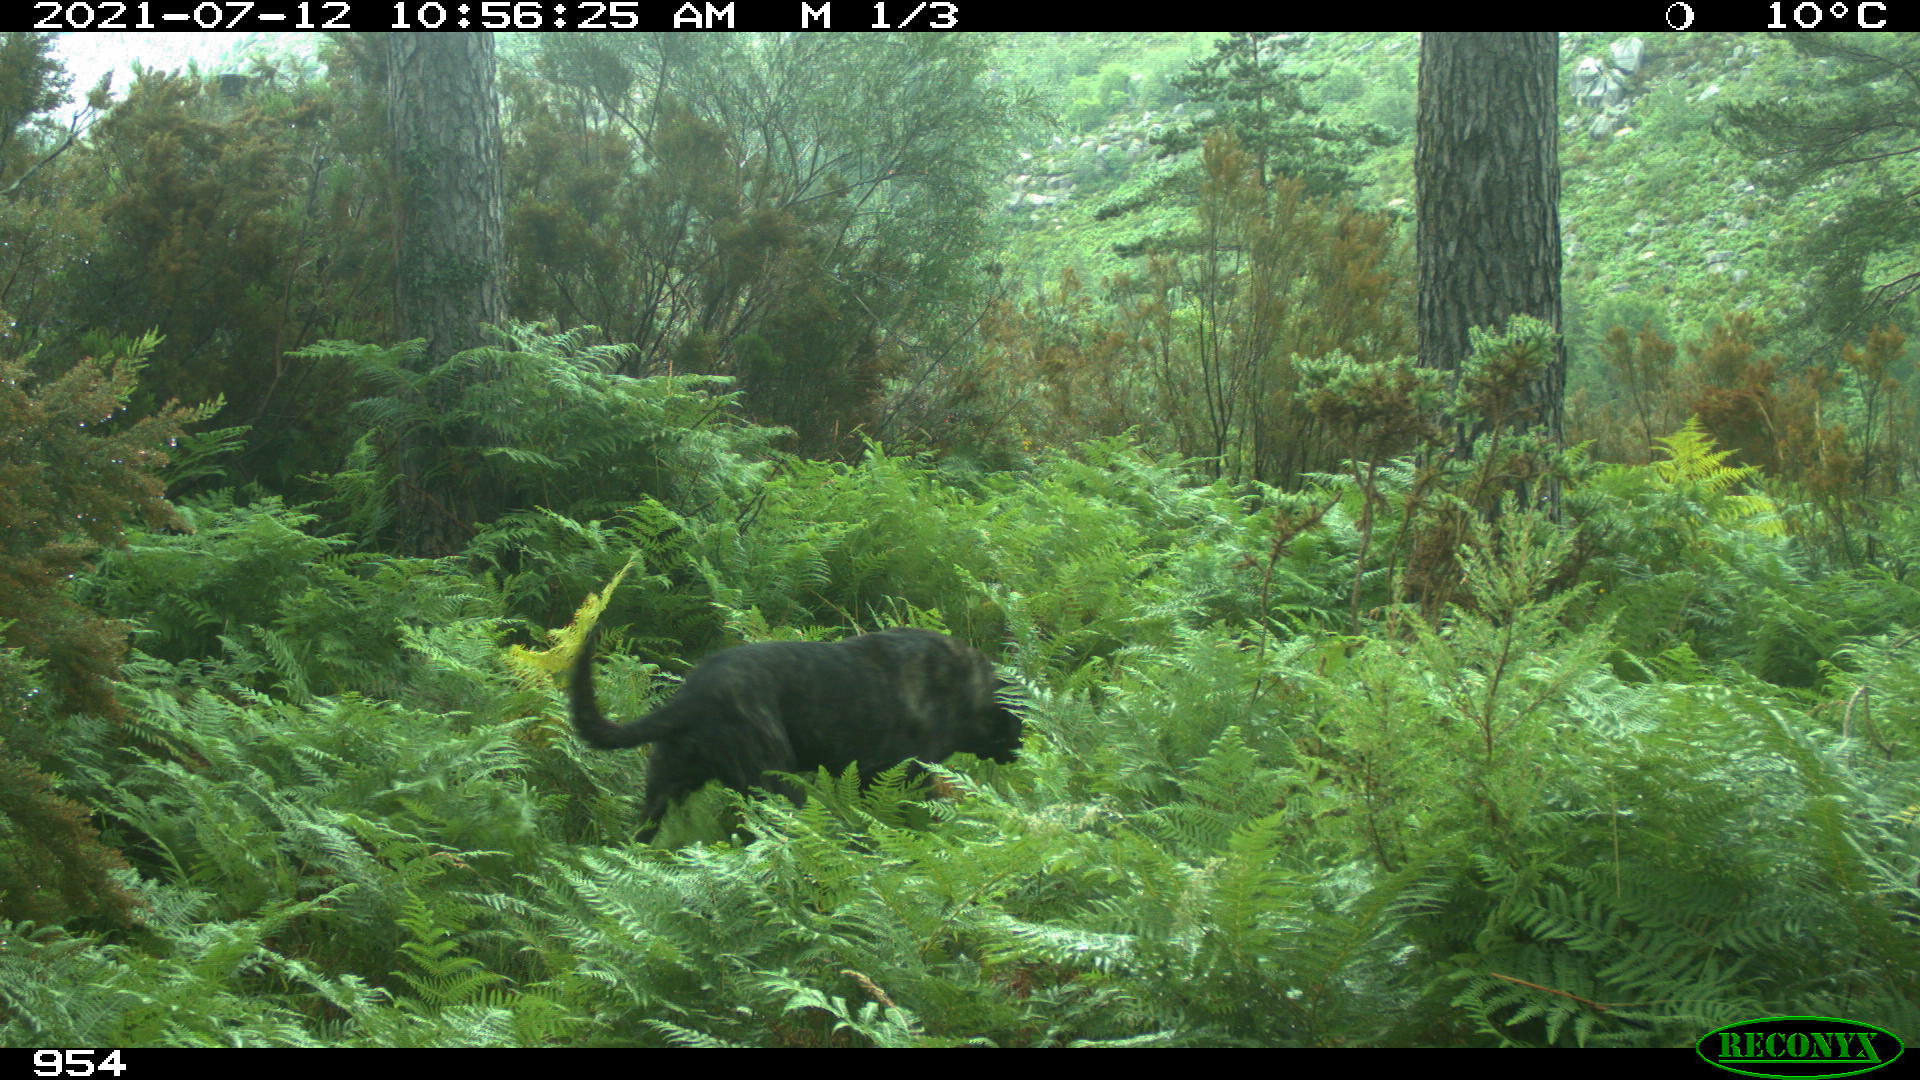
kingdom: Animalia
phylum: Chordata
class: Mammalia
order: Carnivora
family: Canidae
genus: Canis
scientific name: Canis lupus
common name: Gray wolf
